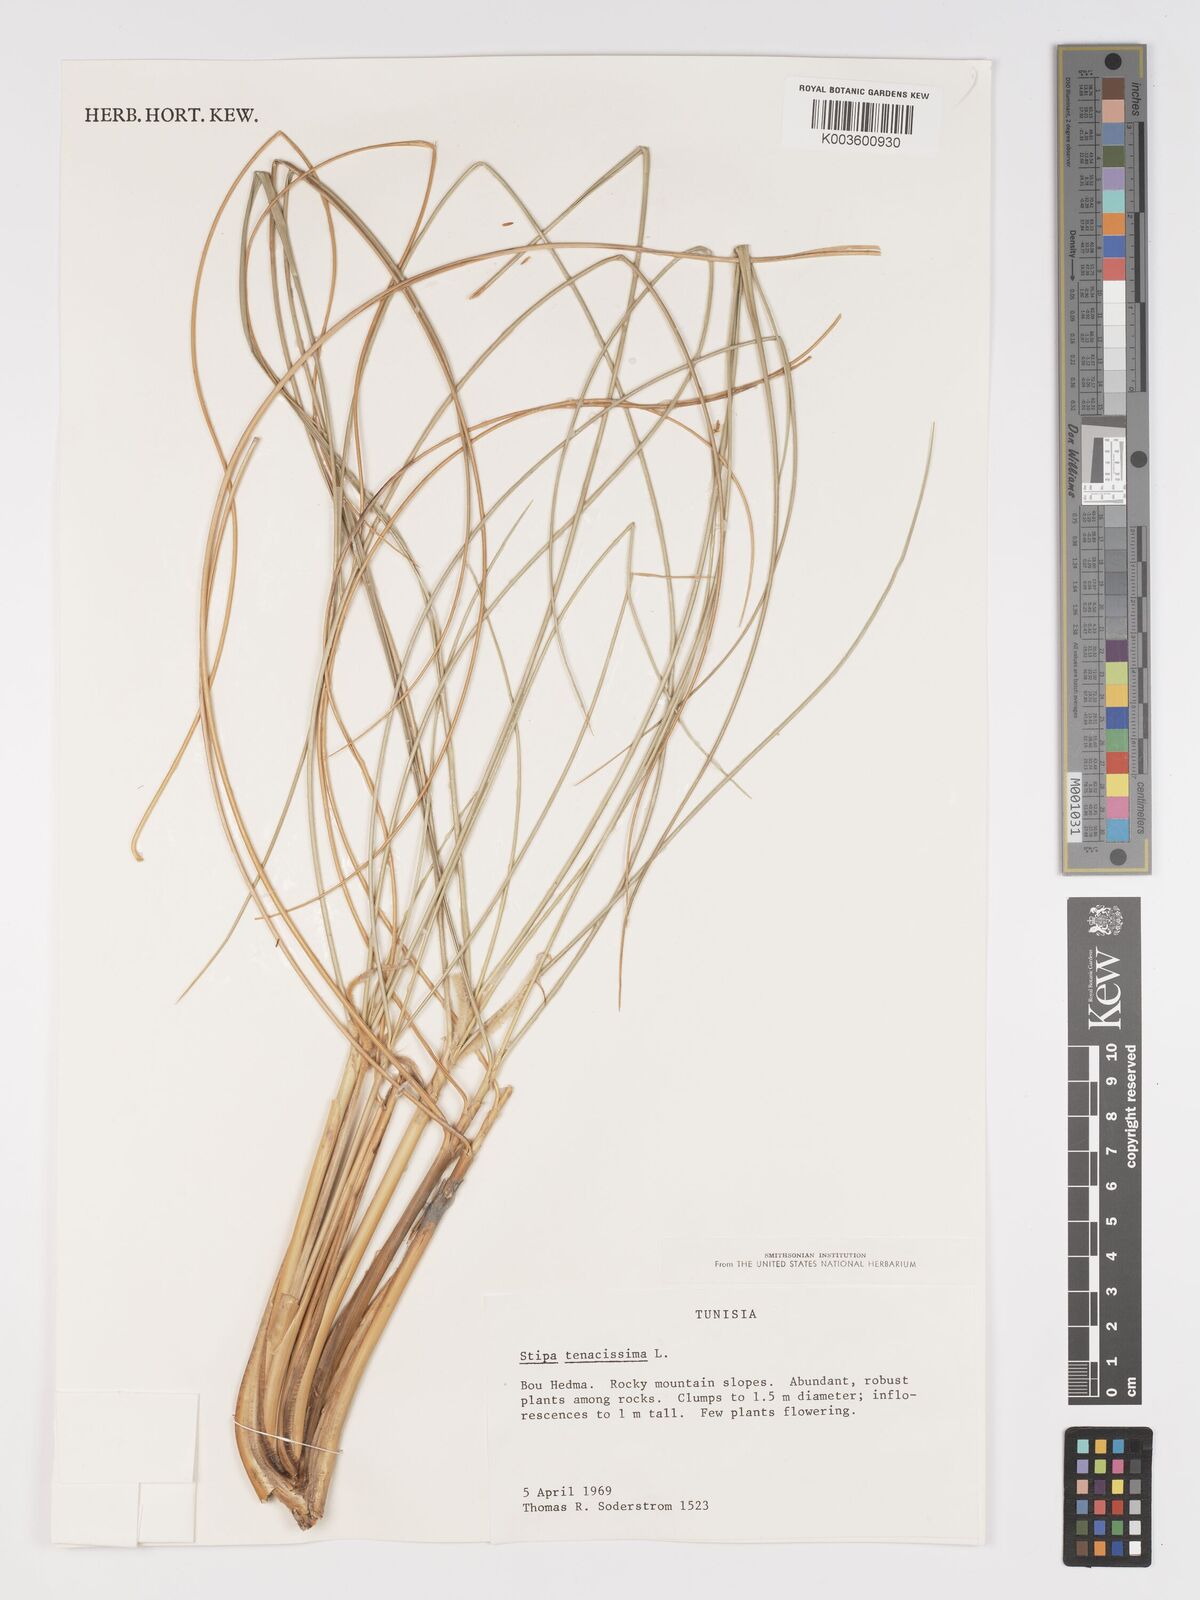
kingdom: Plantae
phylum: Tracheophyta
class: Liliopsida
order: Poales
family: Poaceae
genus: Macrochloa
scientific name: Macrochloa tenacissima
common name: Alfa grass
